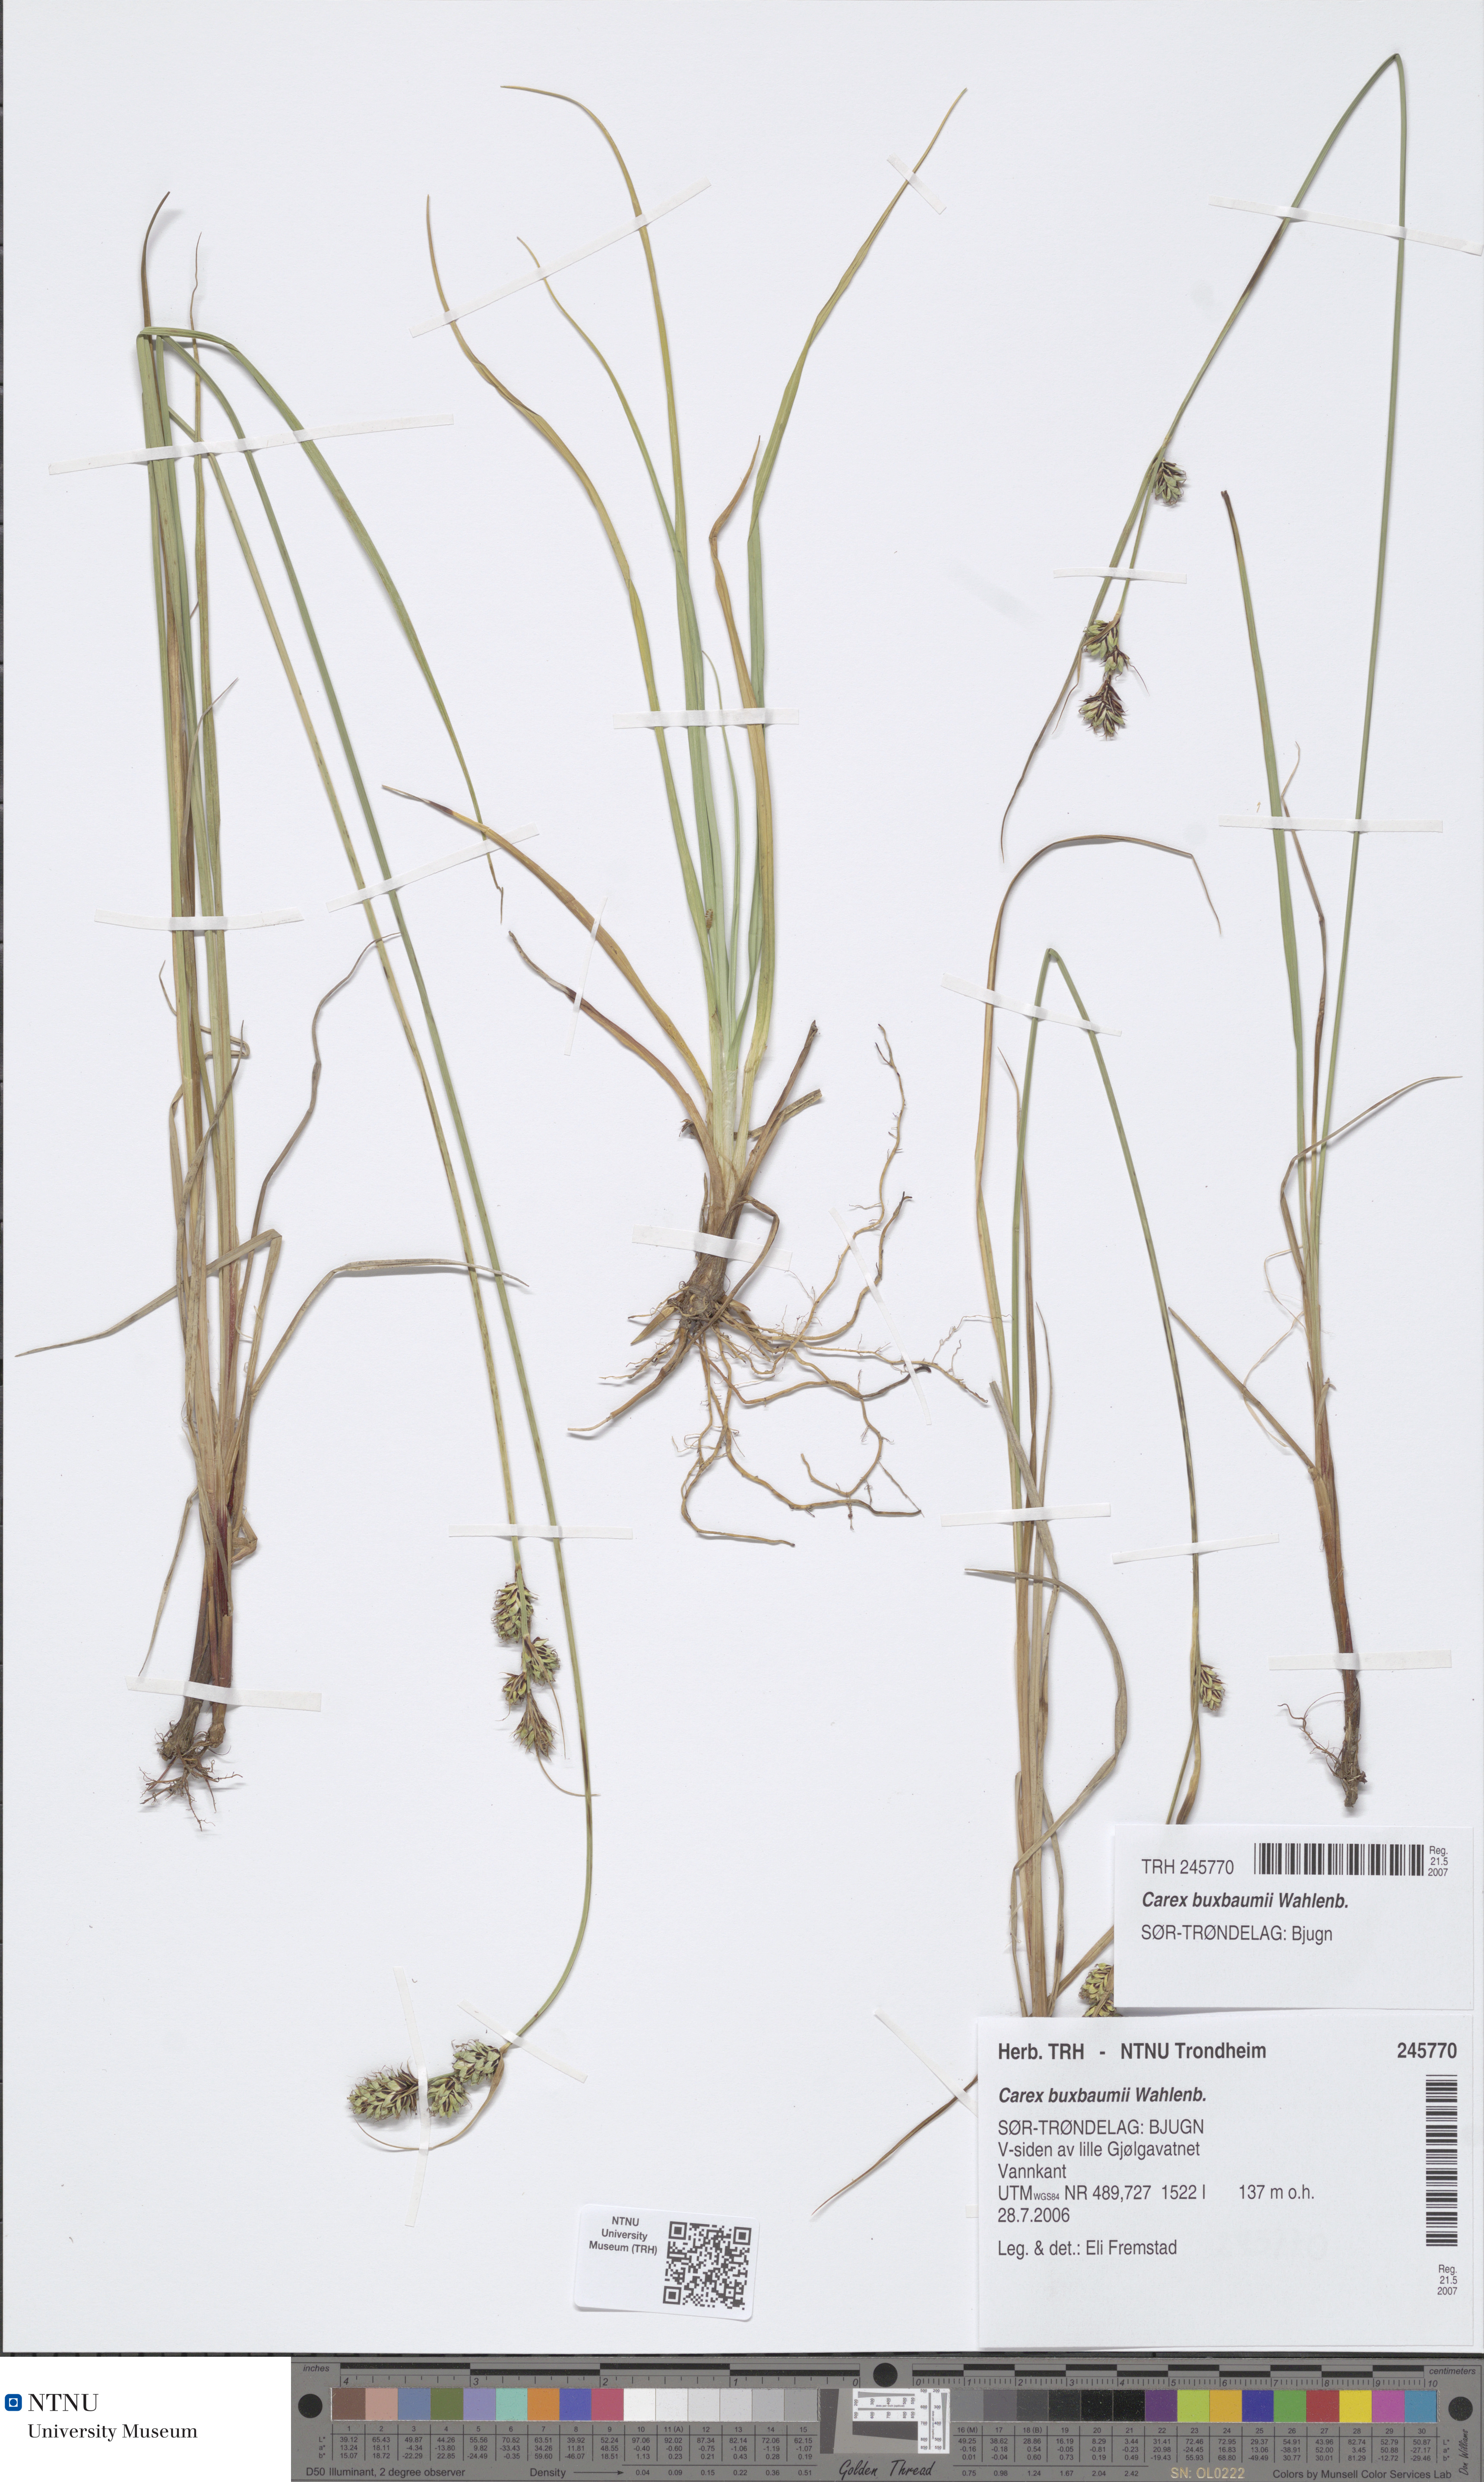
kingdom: Plantae
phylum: Tracheophyta
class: Liliopsida
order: Poales
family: Cyperaceae
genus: Carex
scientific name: Carex buxbaumii
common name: Club sedge
